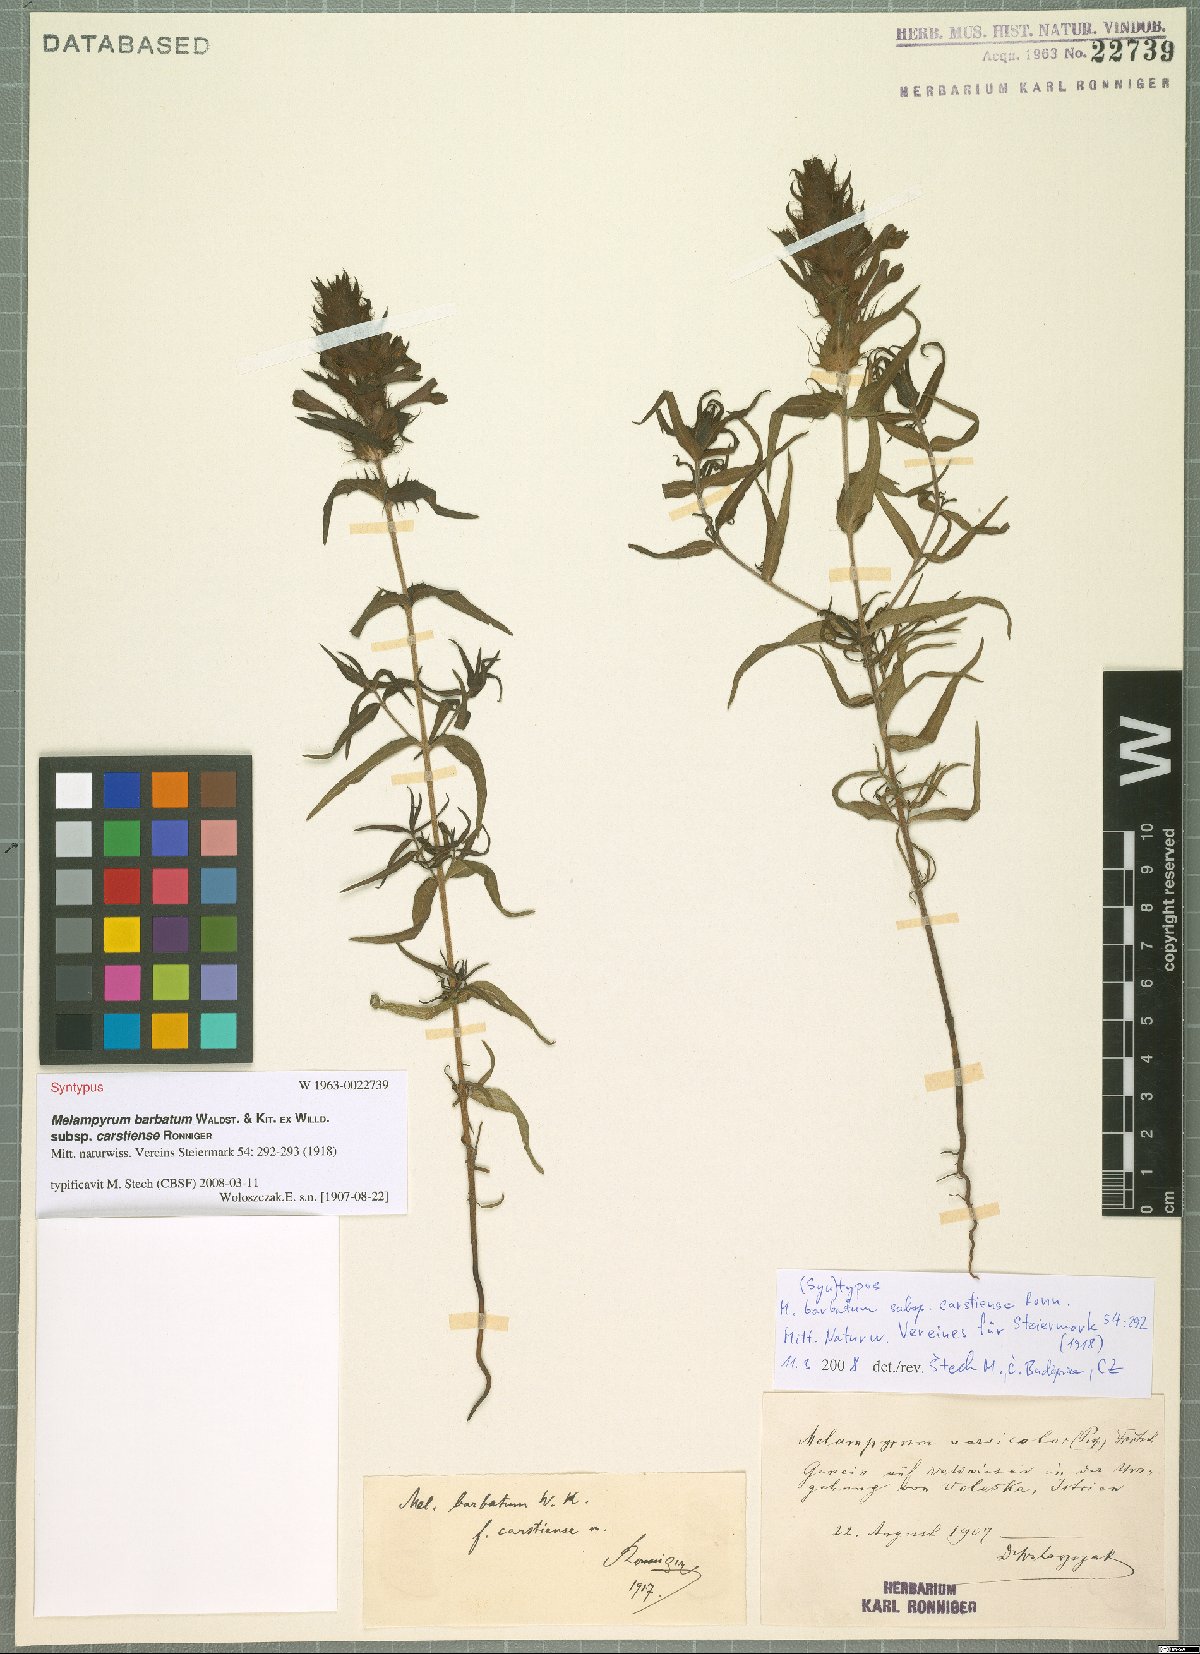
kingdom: Plantae
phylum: Tracheophyta
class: Magnoliopsida
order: Lamiales
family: Orobanchaceae
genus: Melampyrum
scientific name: Melampyrum barbatum
